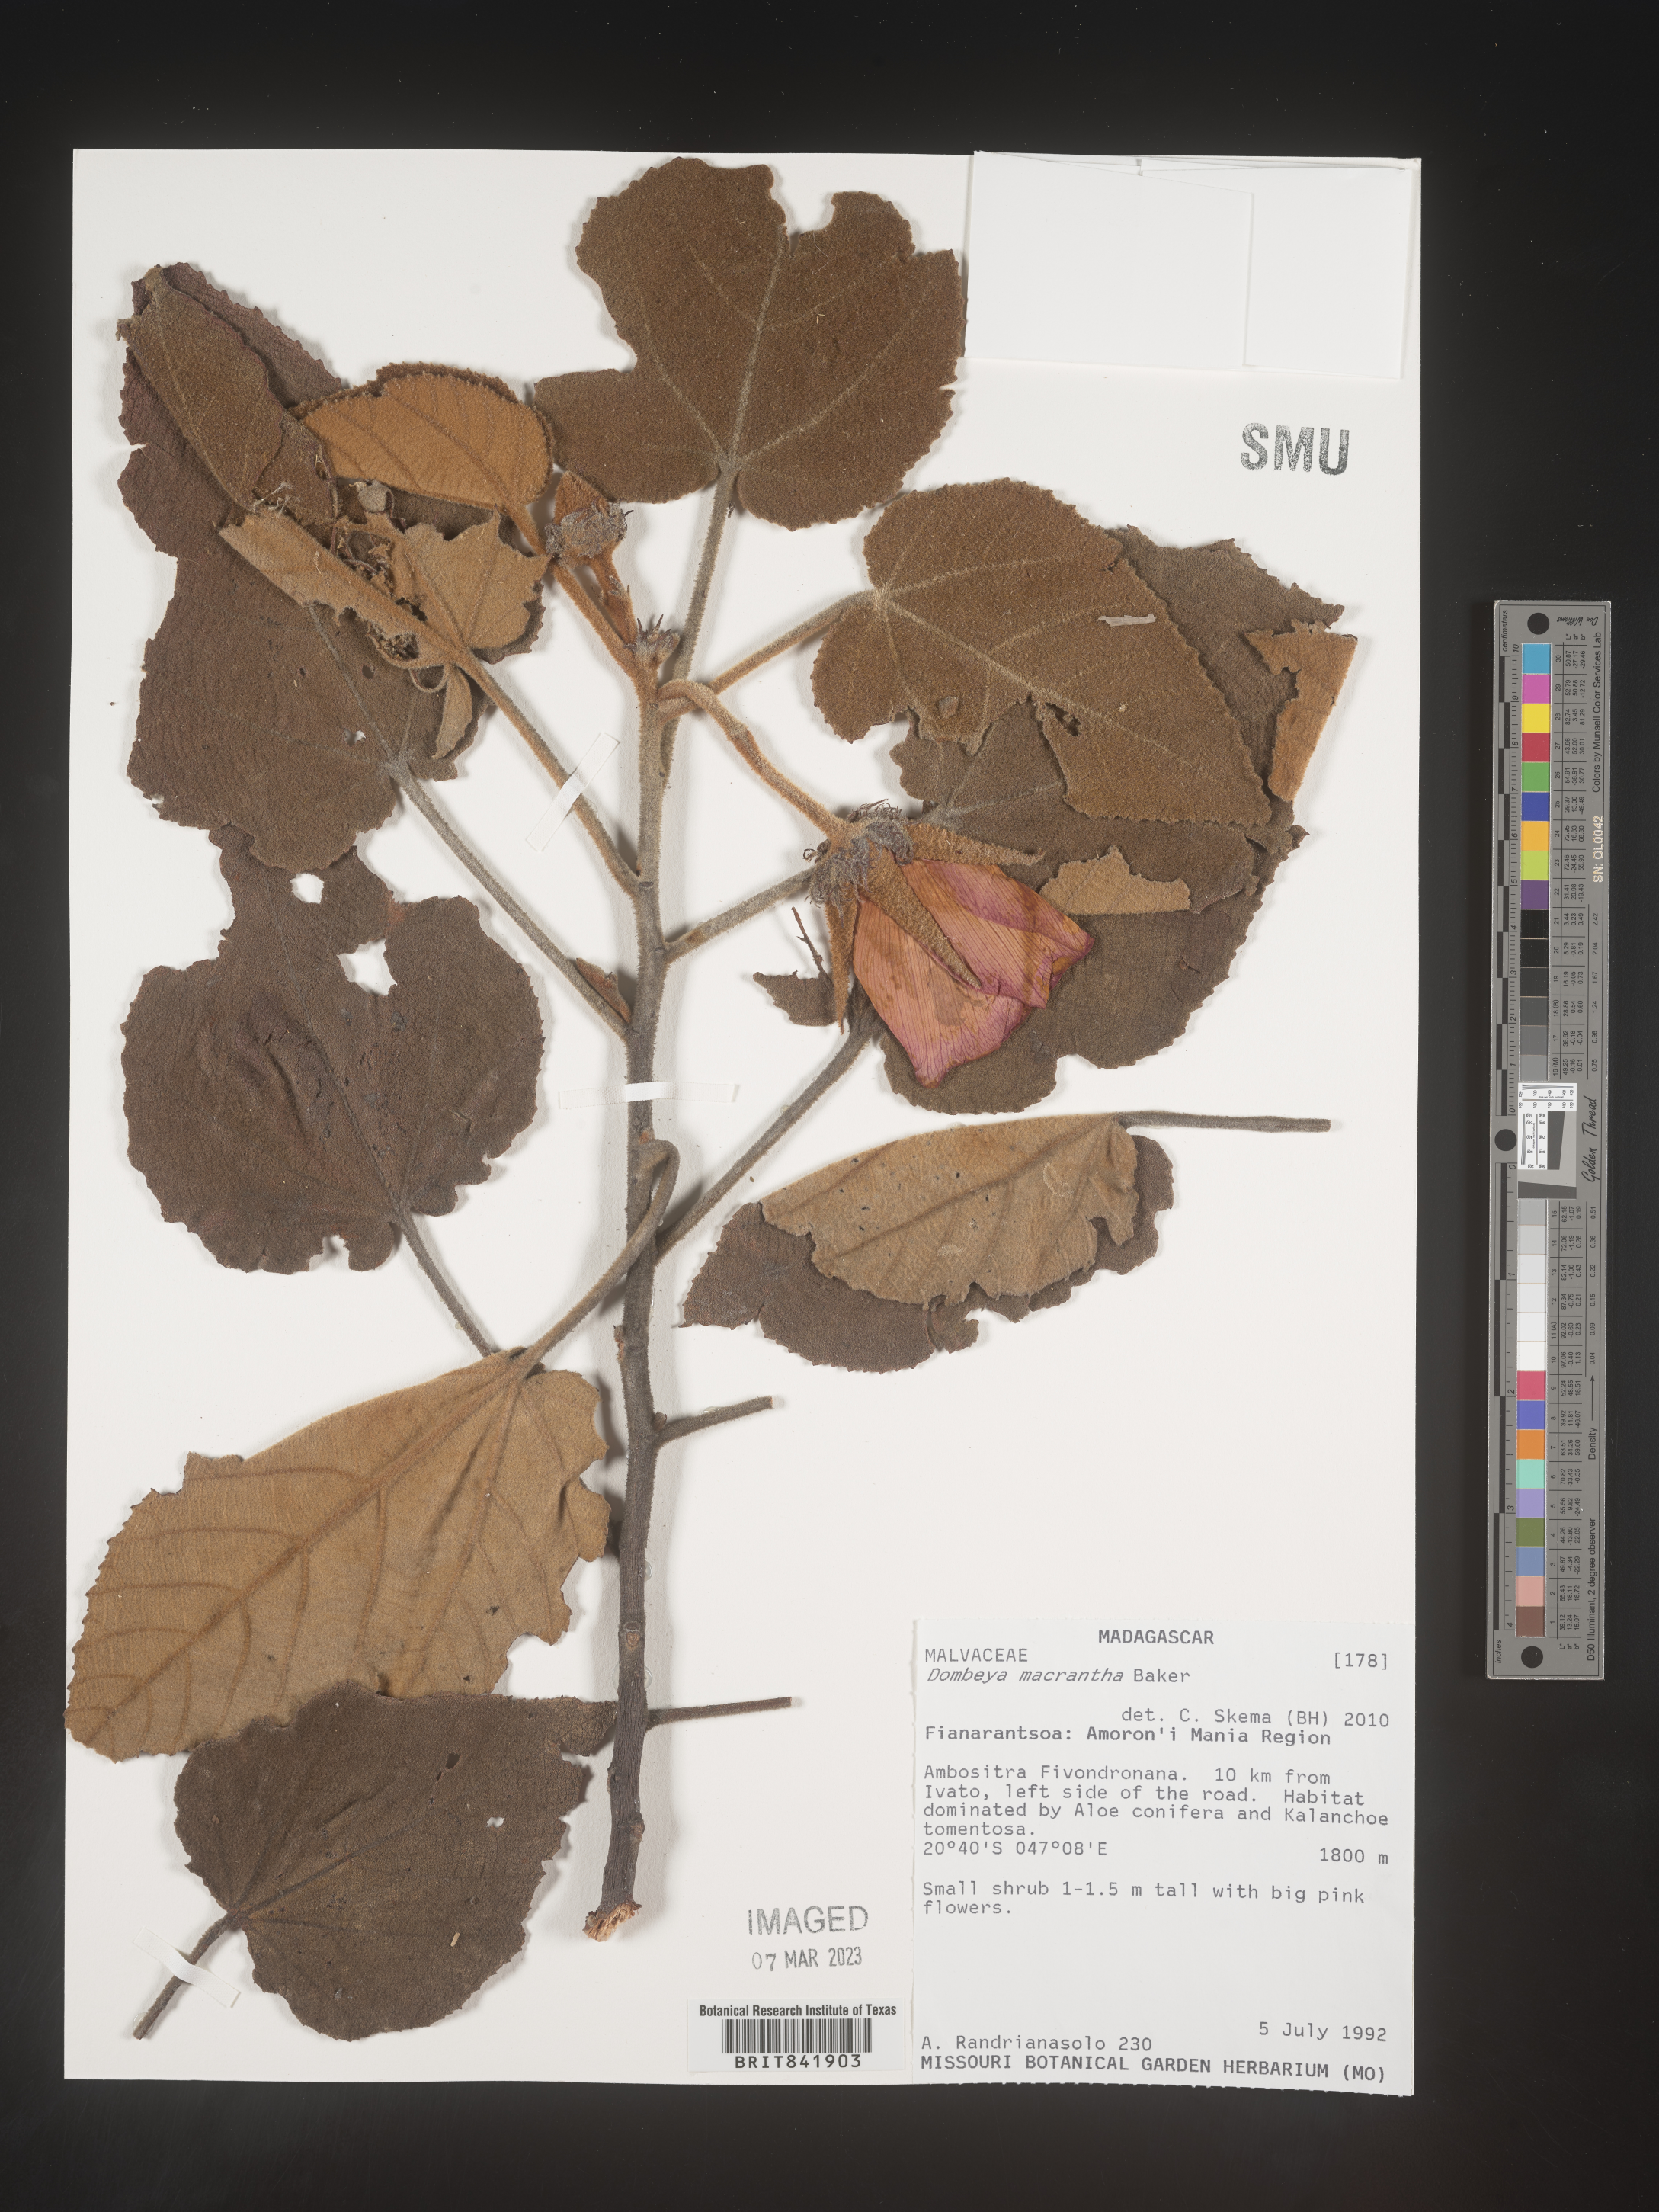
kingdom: Plantae
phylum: Tracheophyta
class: Magnoliopsida
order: Malvales
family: Malvaceae
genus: Andringitra
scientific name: Andringitra macrantha
